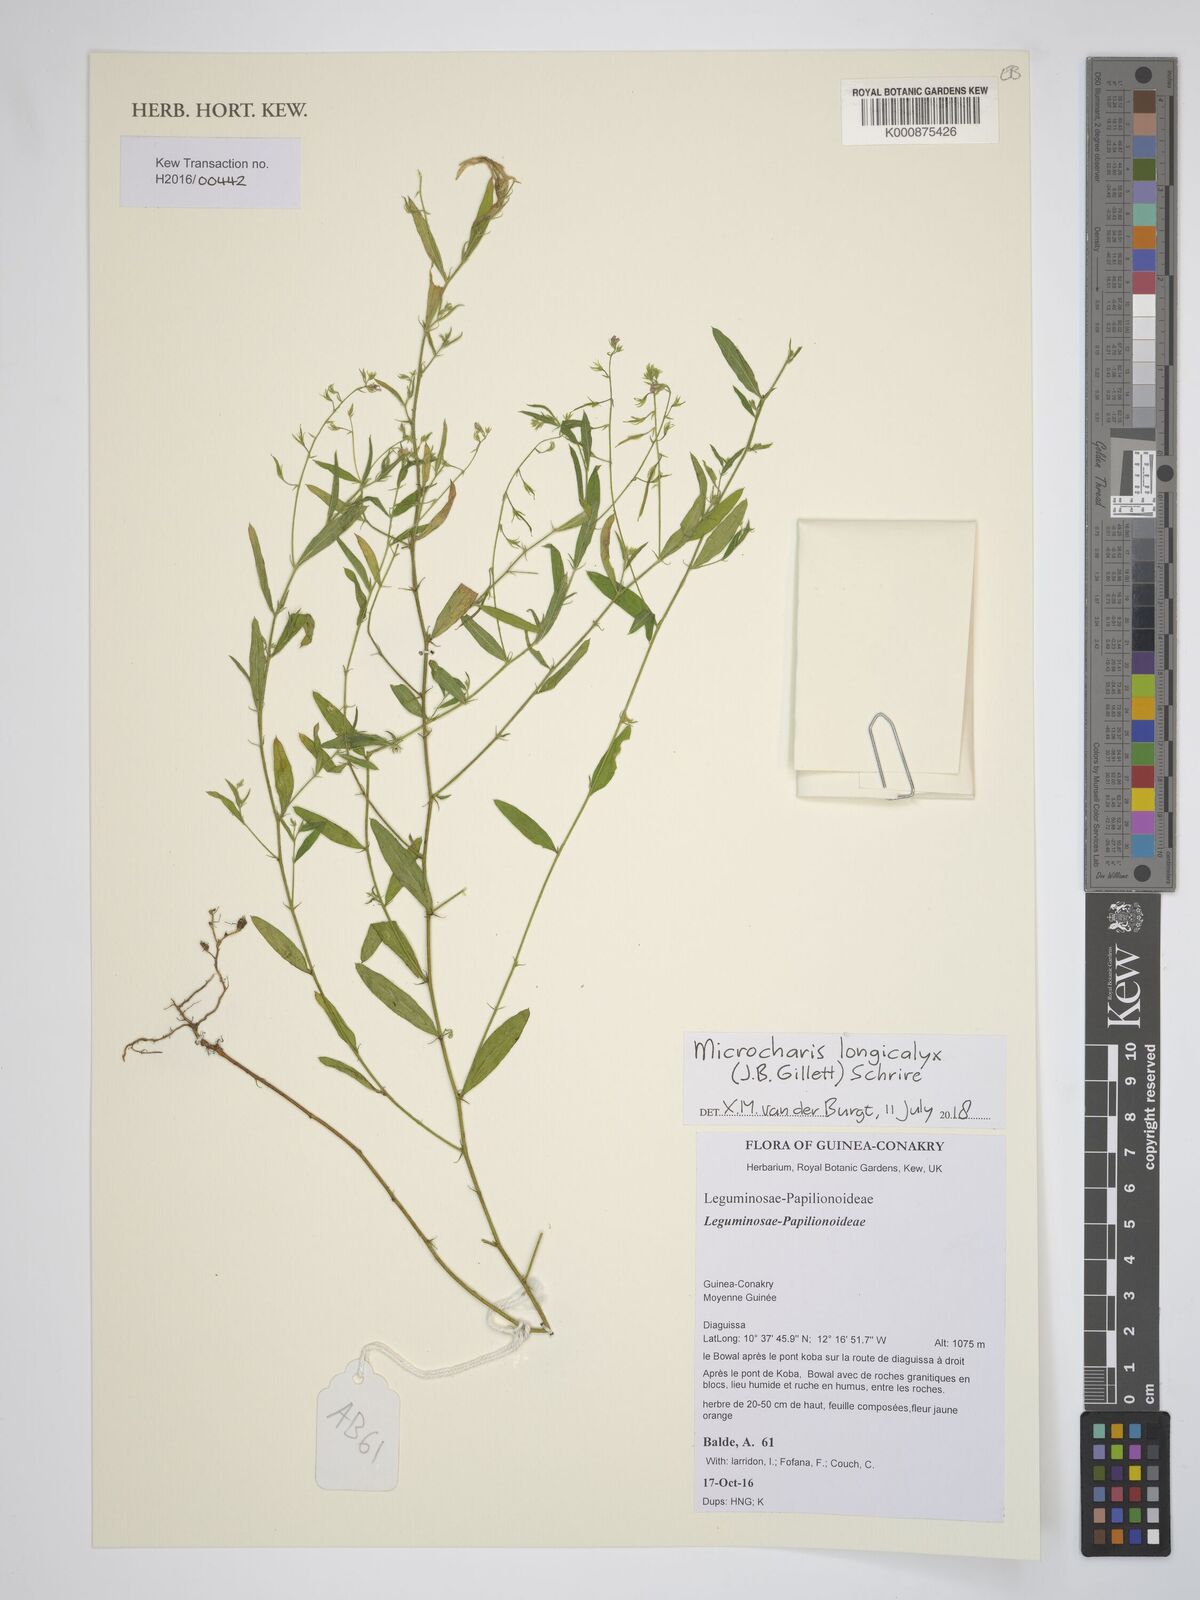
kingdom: Plantae
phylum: Tracheophyta
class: Magnoliopsida
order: Fabales
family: Fabaceae
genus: Microcharis
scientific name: Microcharis longicalyx
